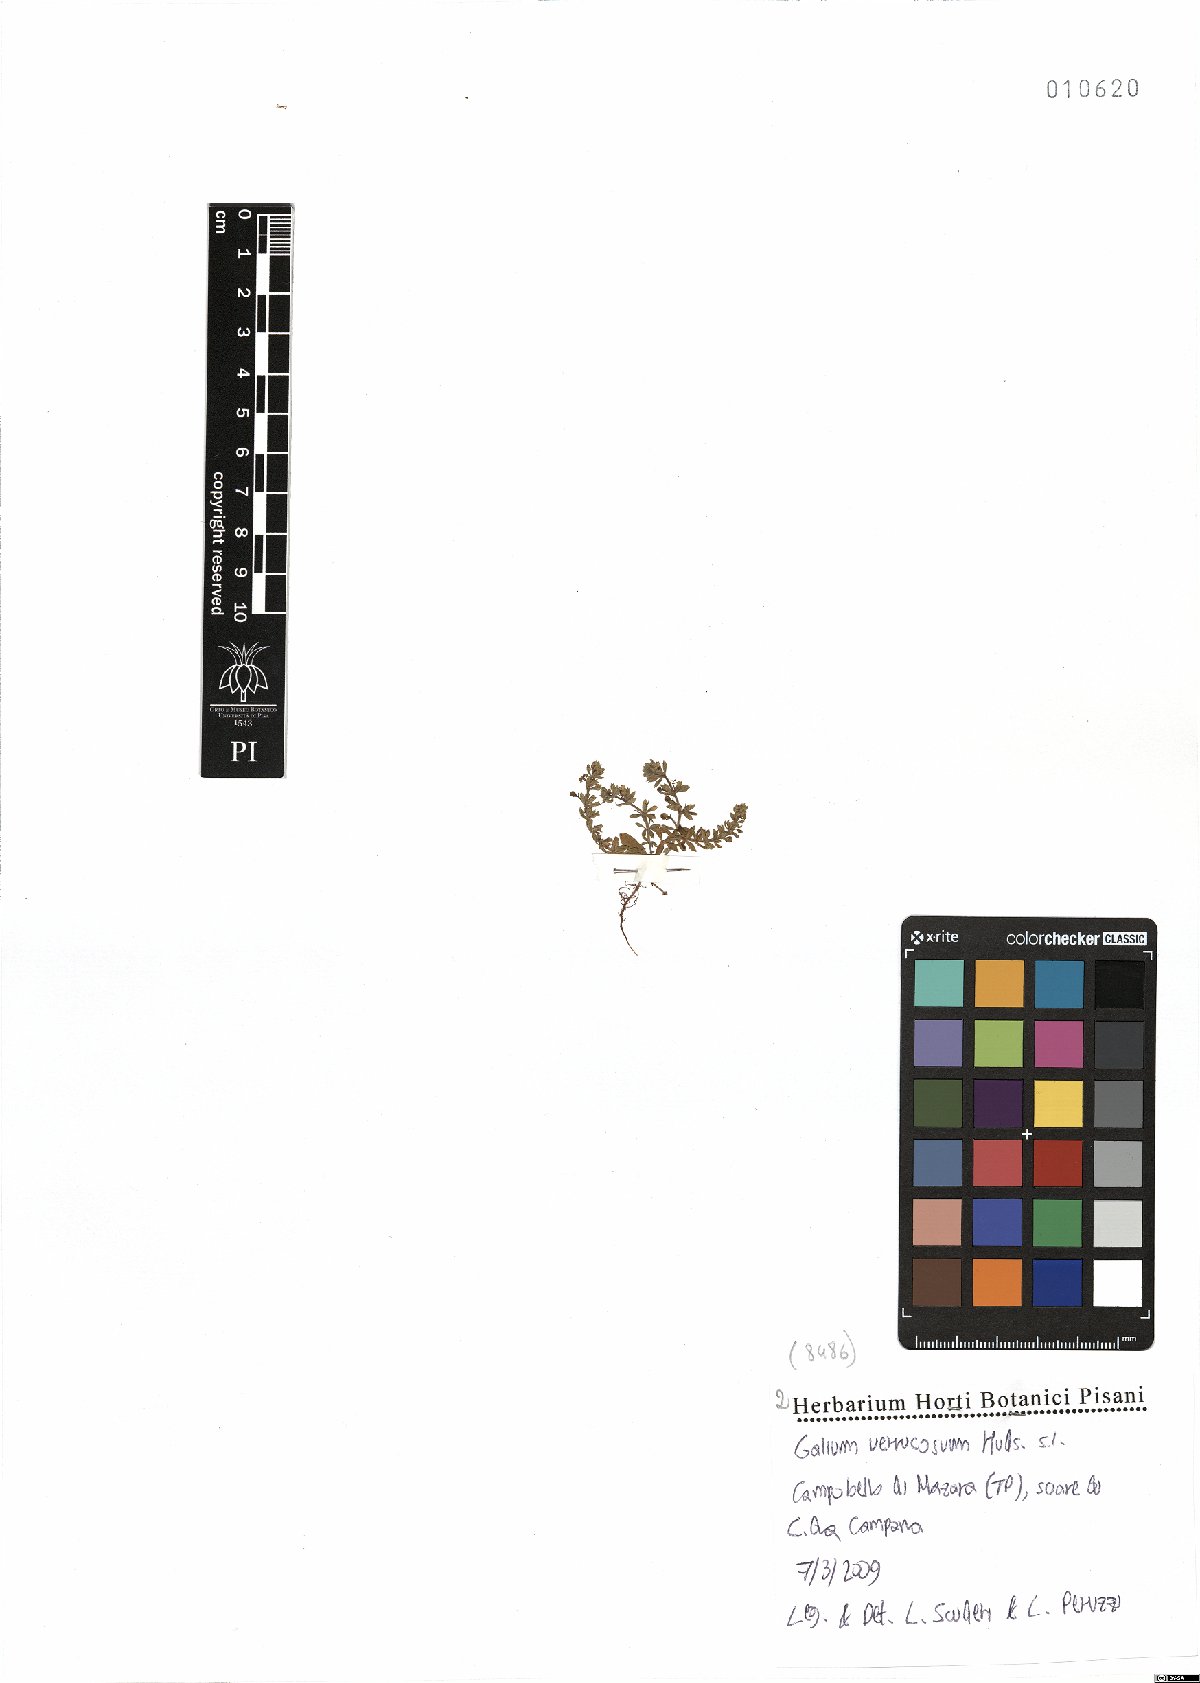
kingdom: Plantae
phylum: Tracheophyta
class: Magnoliopsida
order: Gentianales
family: Rubiaceae
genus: Galium
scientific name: Galium verrucosum
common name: Warty bedstraw
